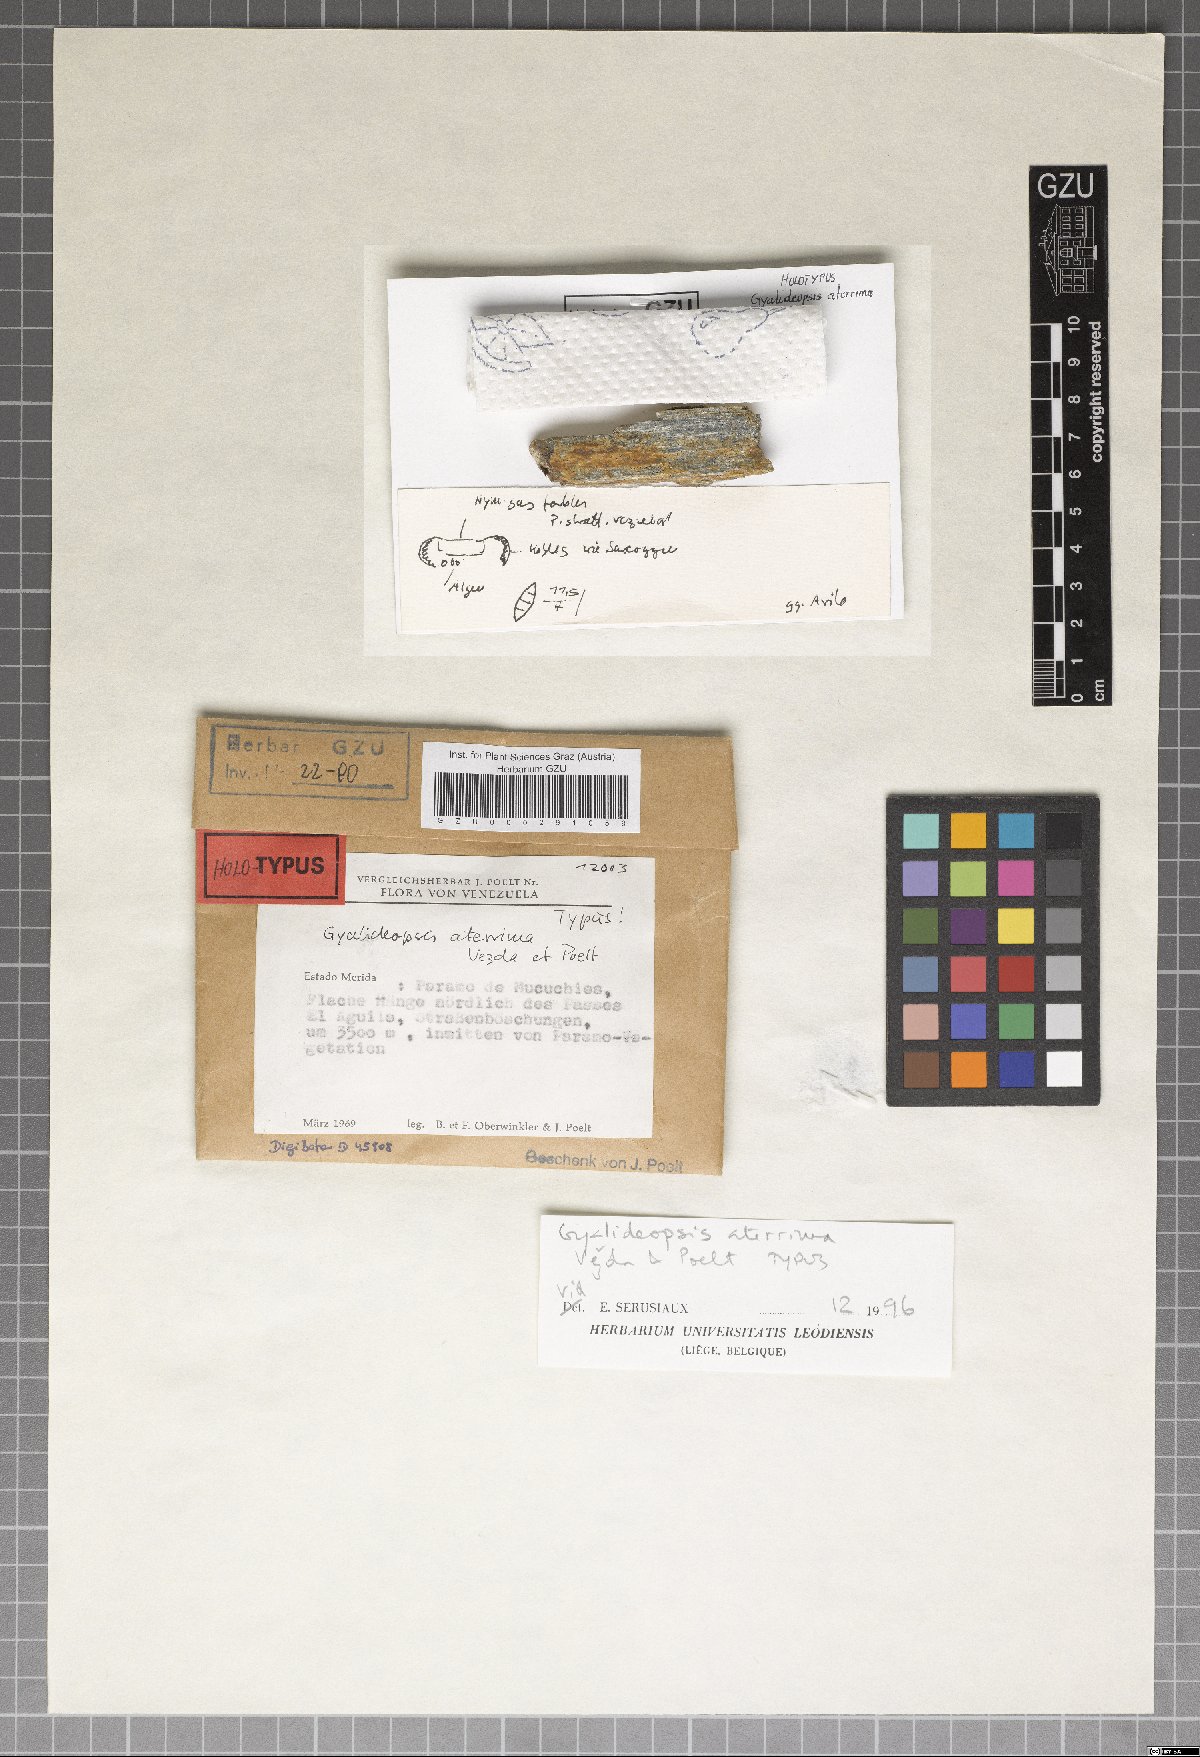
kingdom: Fungi
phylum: Ascomycota
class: Lecanoromycetes
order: Ostropales
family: Gomphillaceae
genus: Lithogyalideopsis
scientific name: Lithogyalideopsis aterrima
